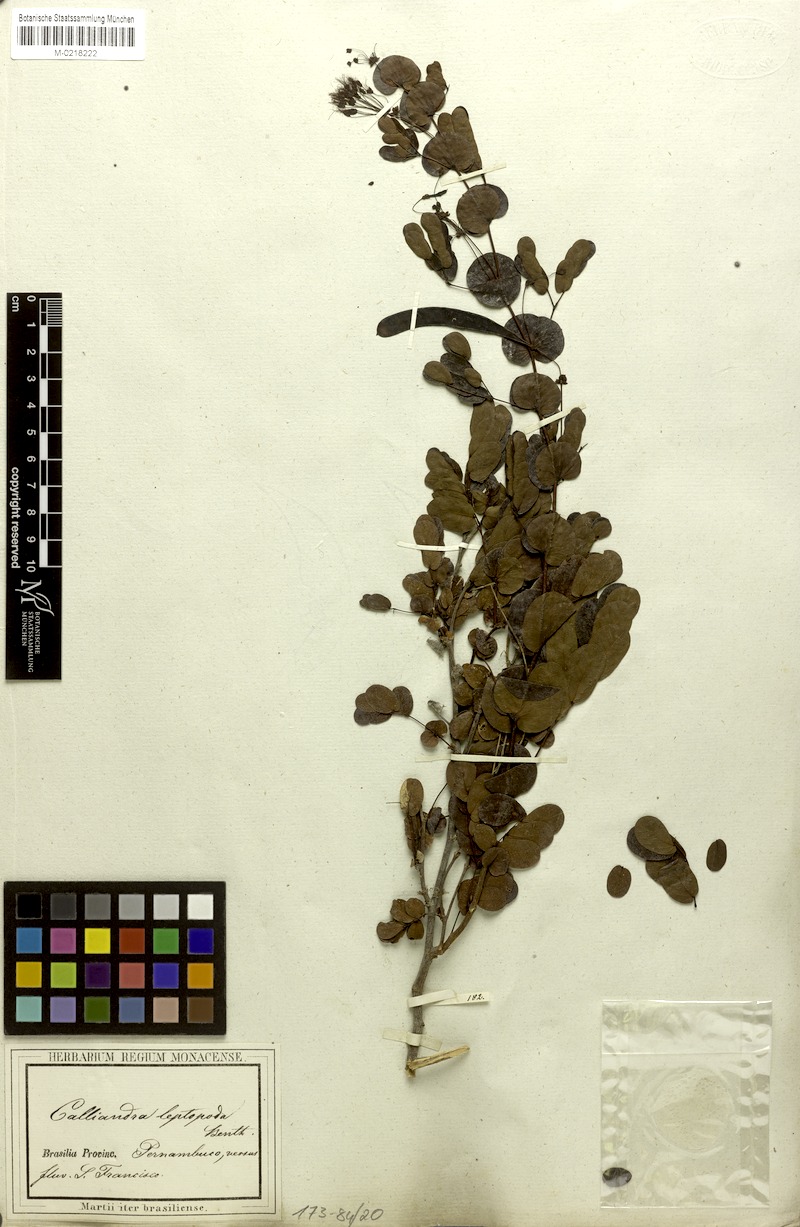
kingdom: Plantae
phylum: Tracheophyta
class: Magnoliopsida
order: Fabales
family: Fabaceae
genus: Calliandra
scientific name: Calliandra leptopoda
